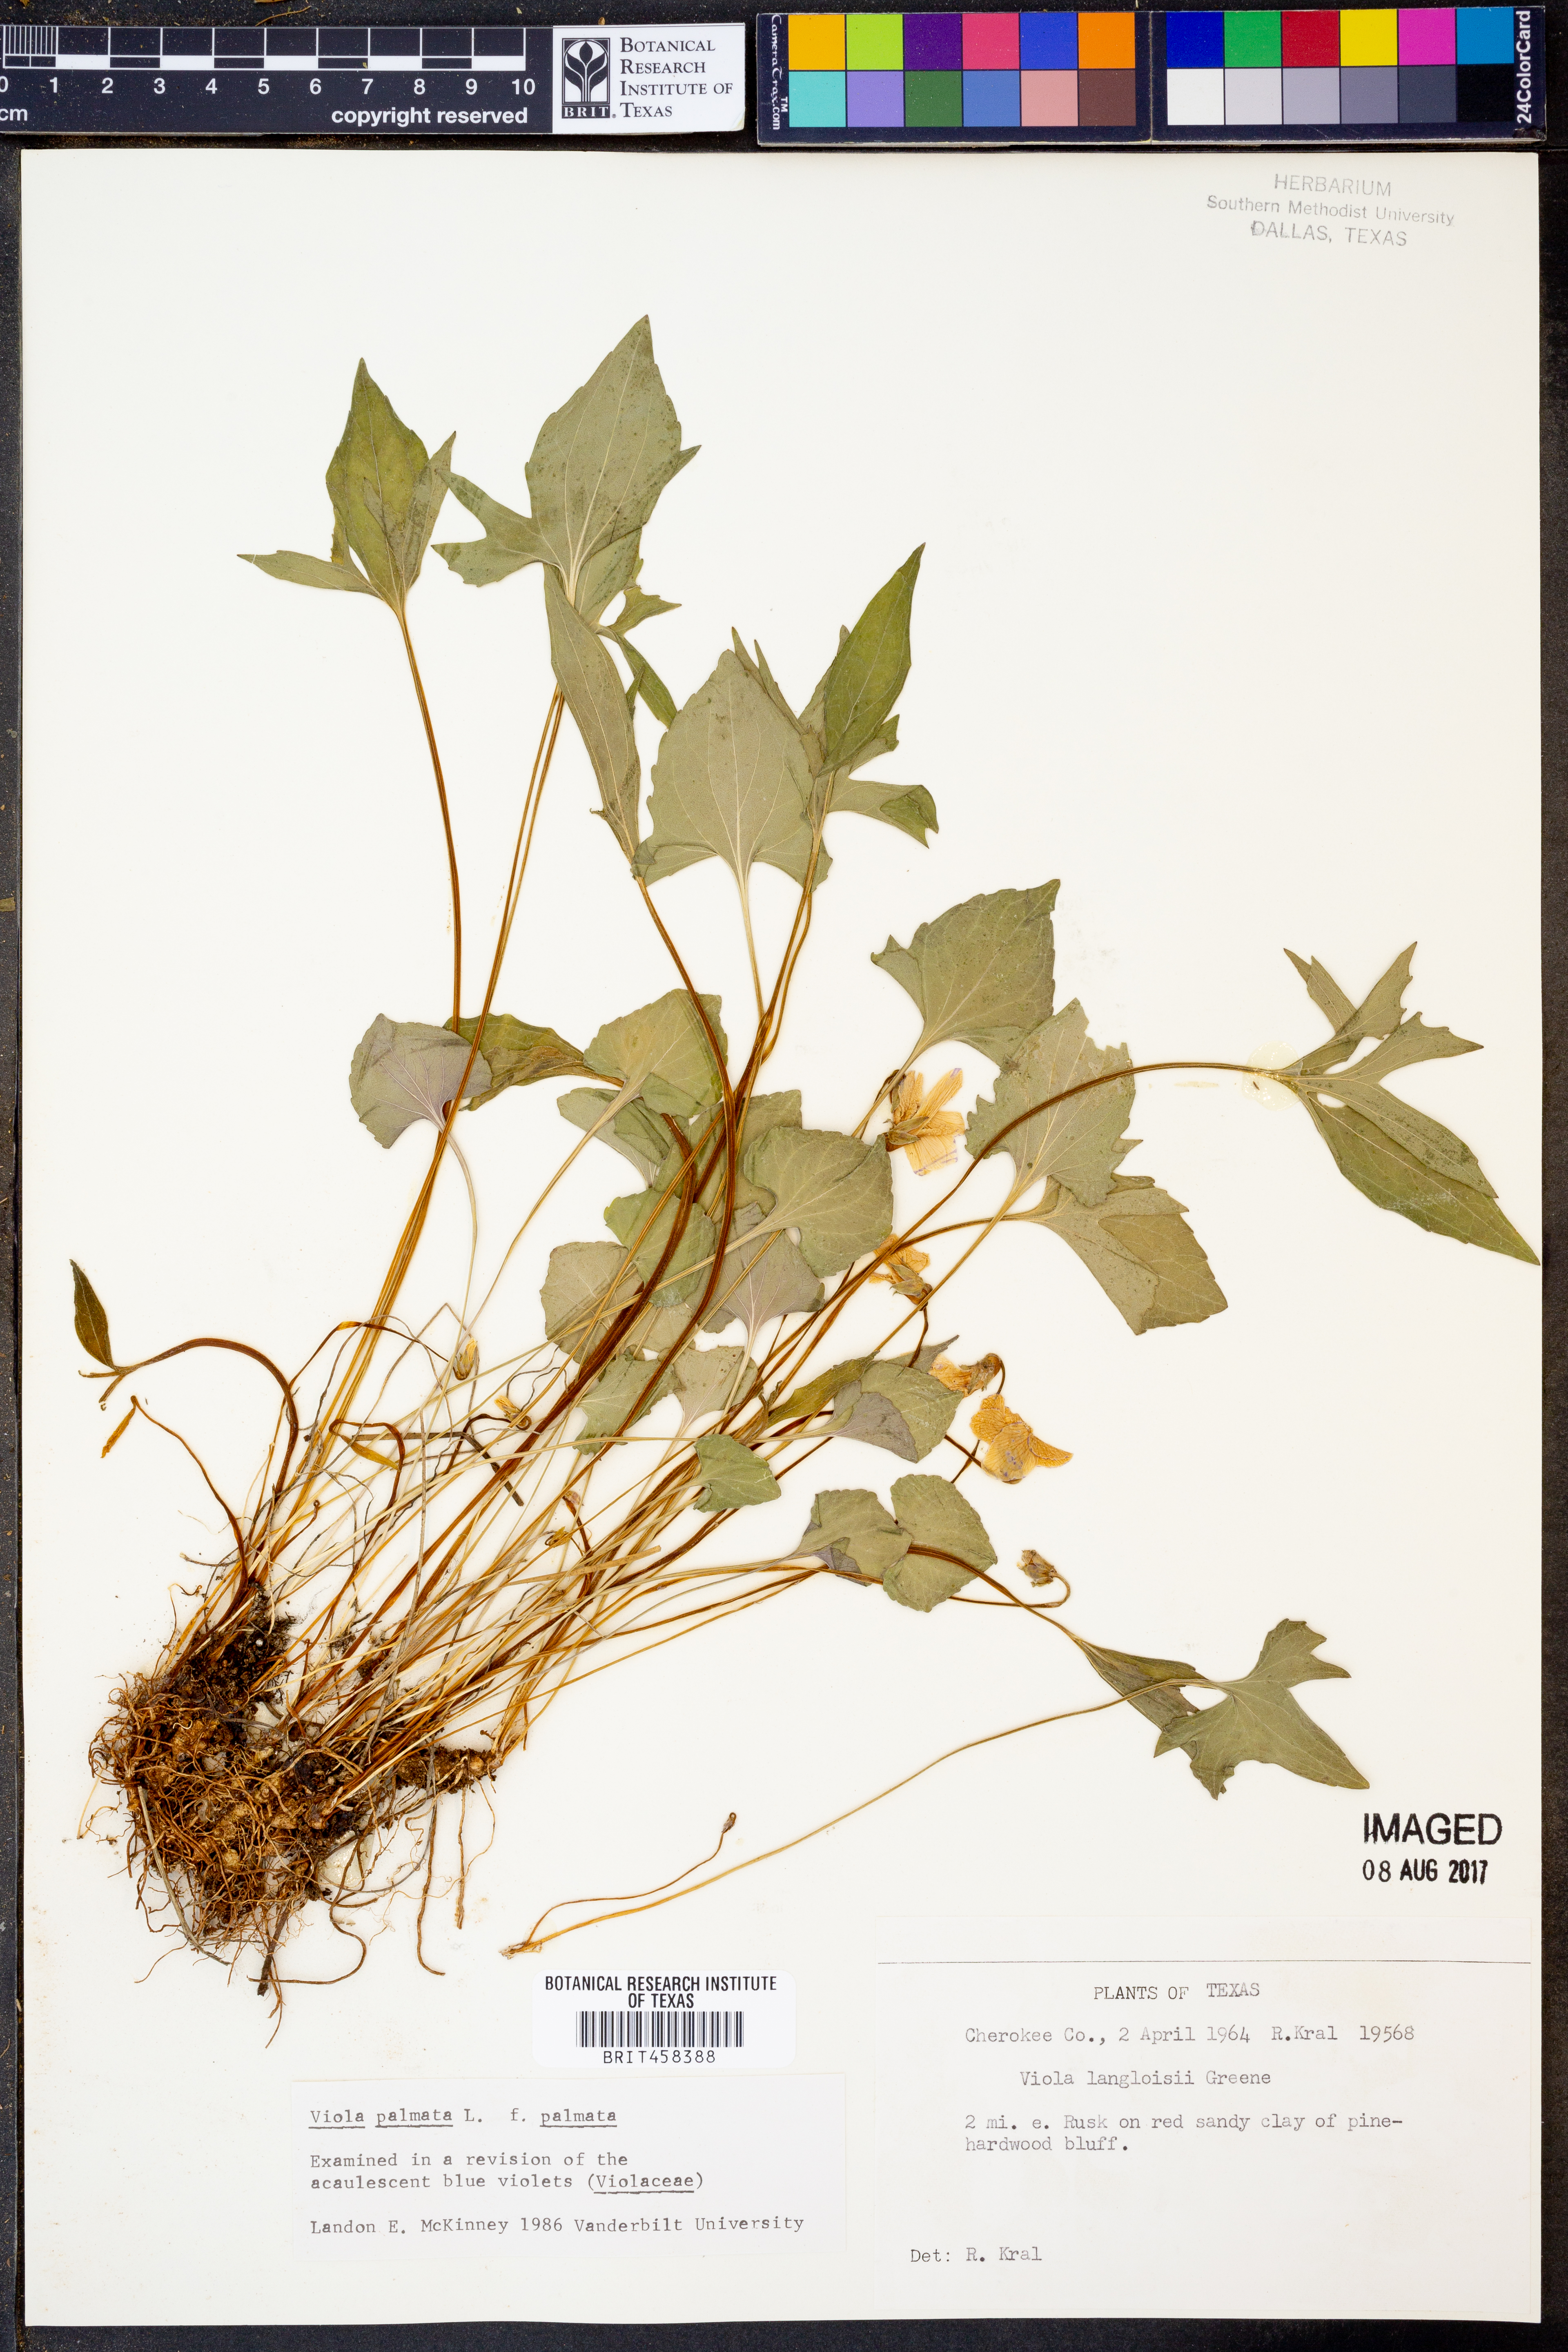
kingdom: Plantae
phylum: Tracheophyta
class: Magnoliopsida
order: Malpighiales
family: Violaceae
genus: Viola
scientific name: Viola palmata
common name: Early blue violet
